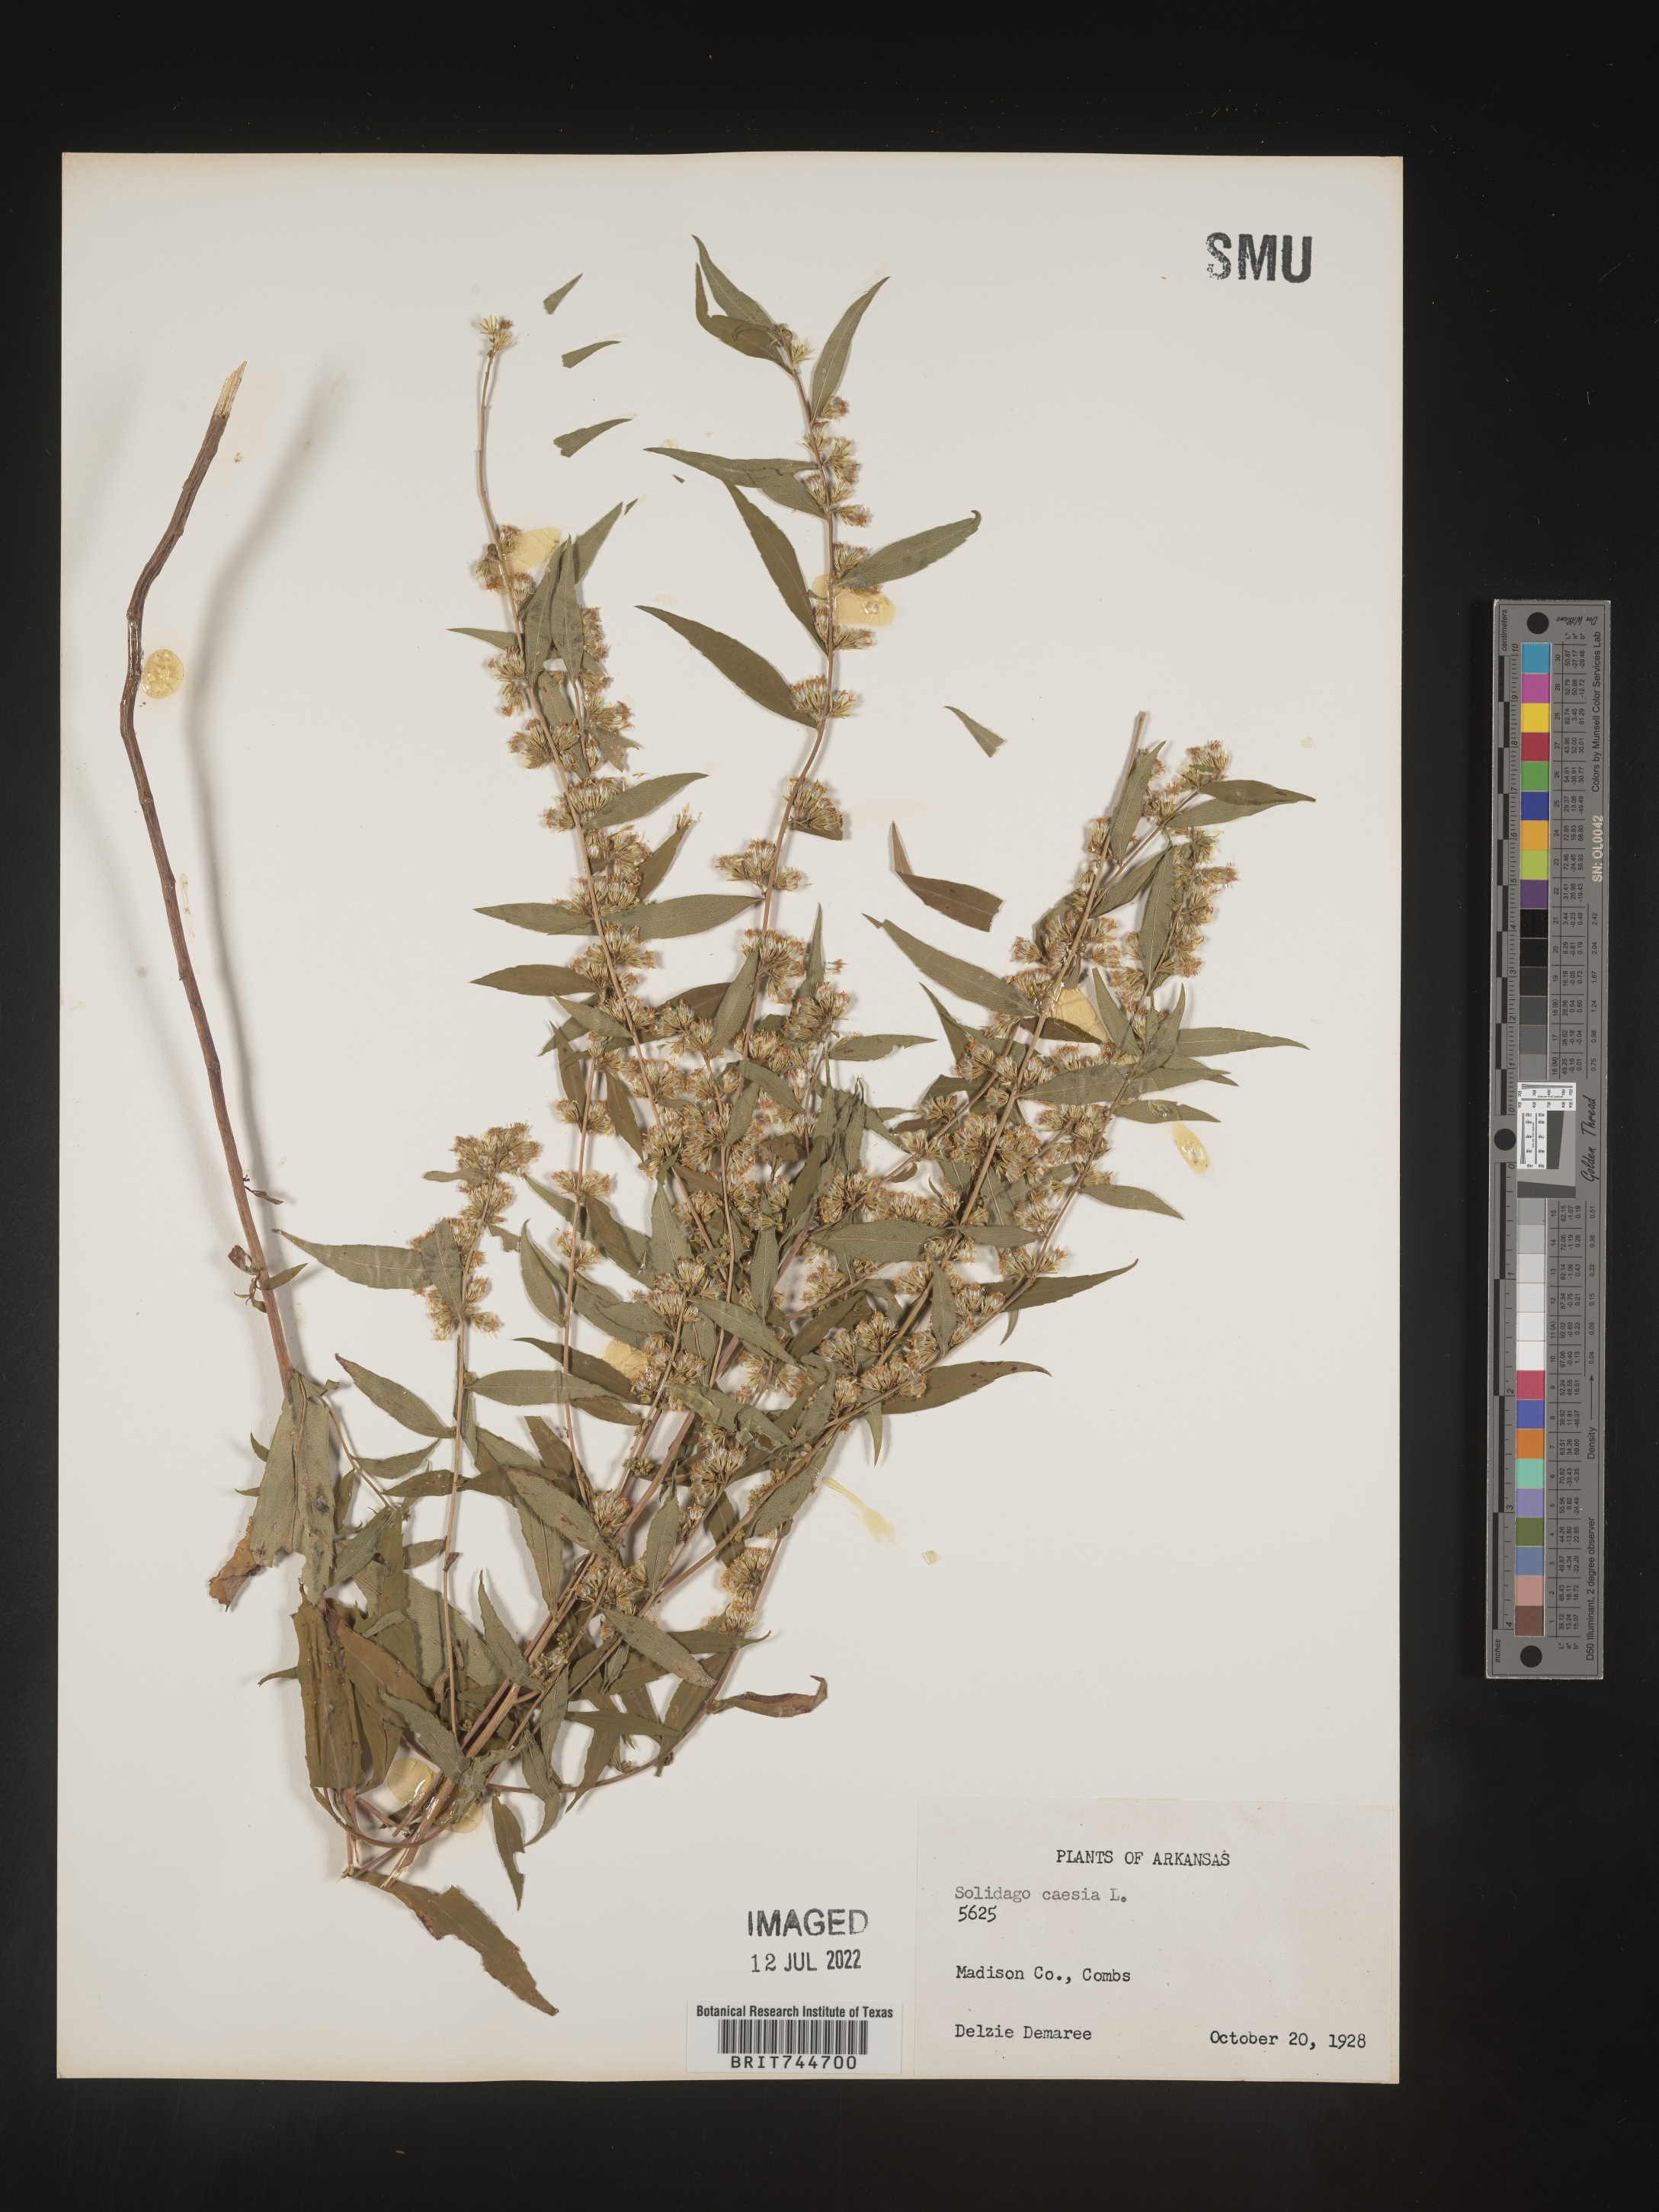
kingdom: Plantae
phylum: Tracheophyta
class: Magnoliopsida
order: Asterales
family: Asteraceae
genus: Solidago
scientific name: Solidago caesia
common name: Woodland goldenrod
